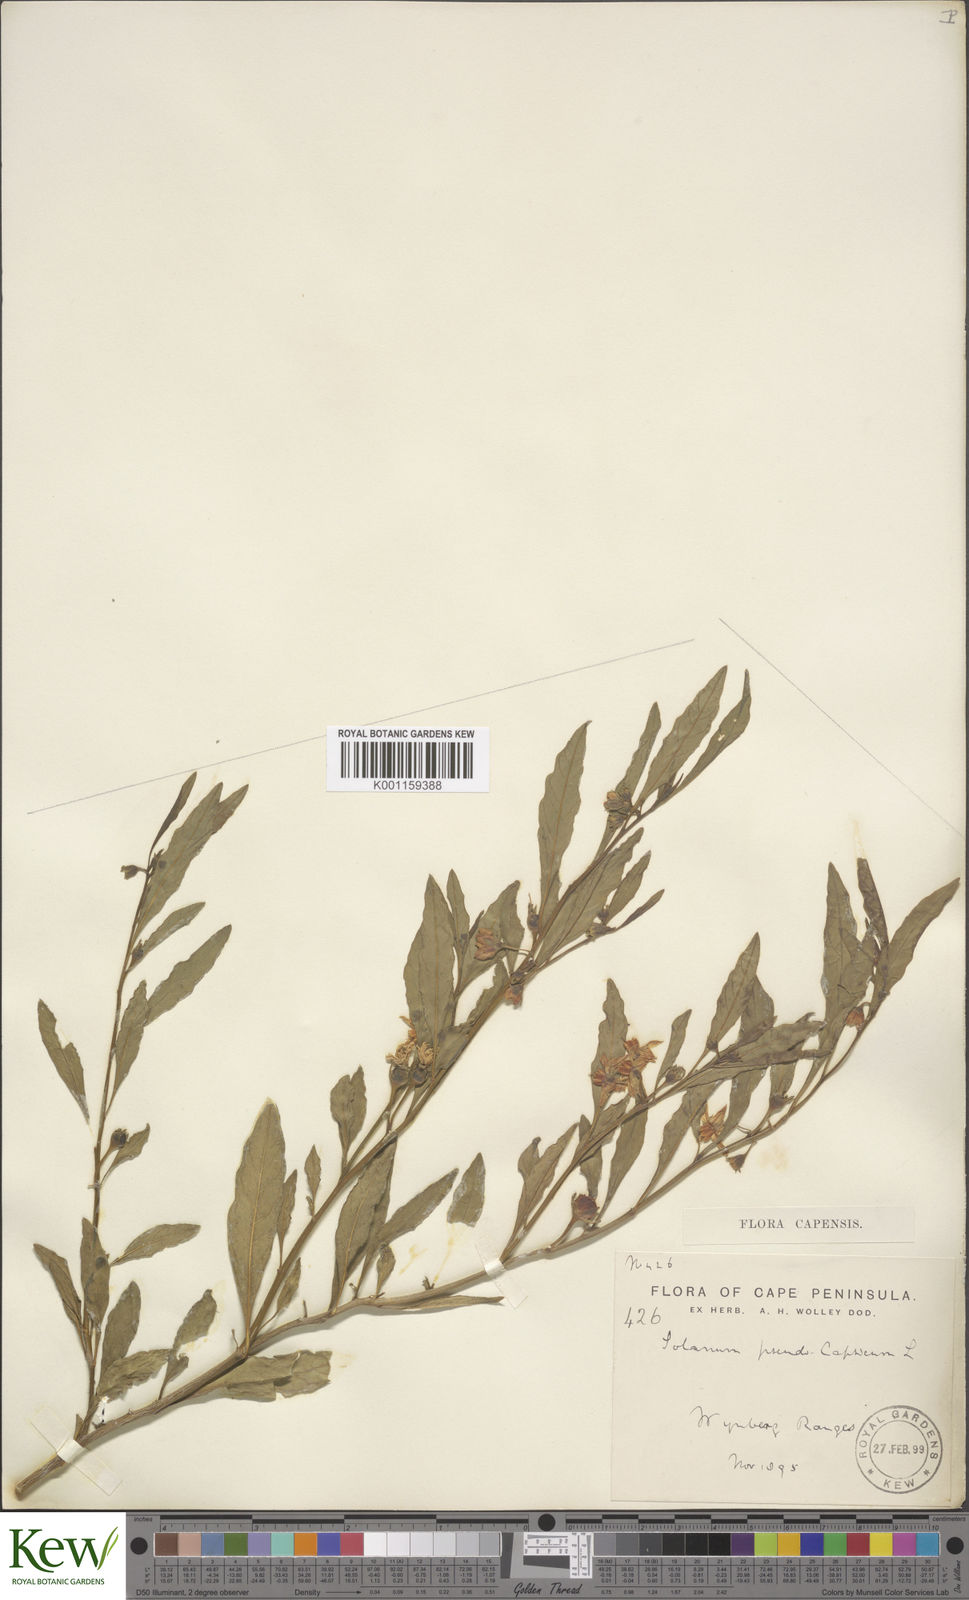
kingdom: Plantae
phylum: Tracheophyta
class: Magnoliopsida
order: Solanales
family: Solanaceae
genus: Solanum
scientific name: Solanum pseudocapsicum
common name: Jerusalem cherry
